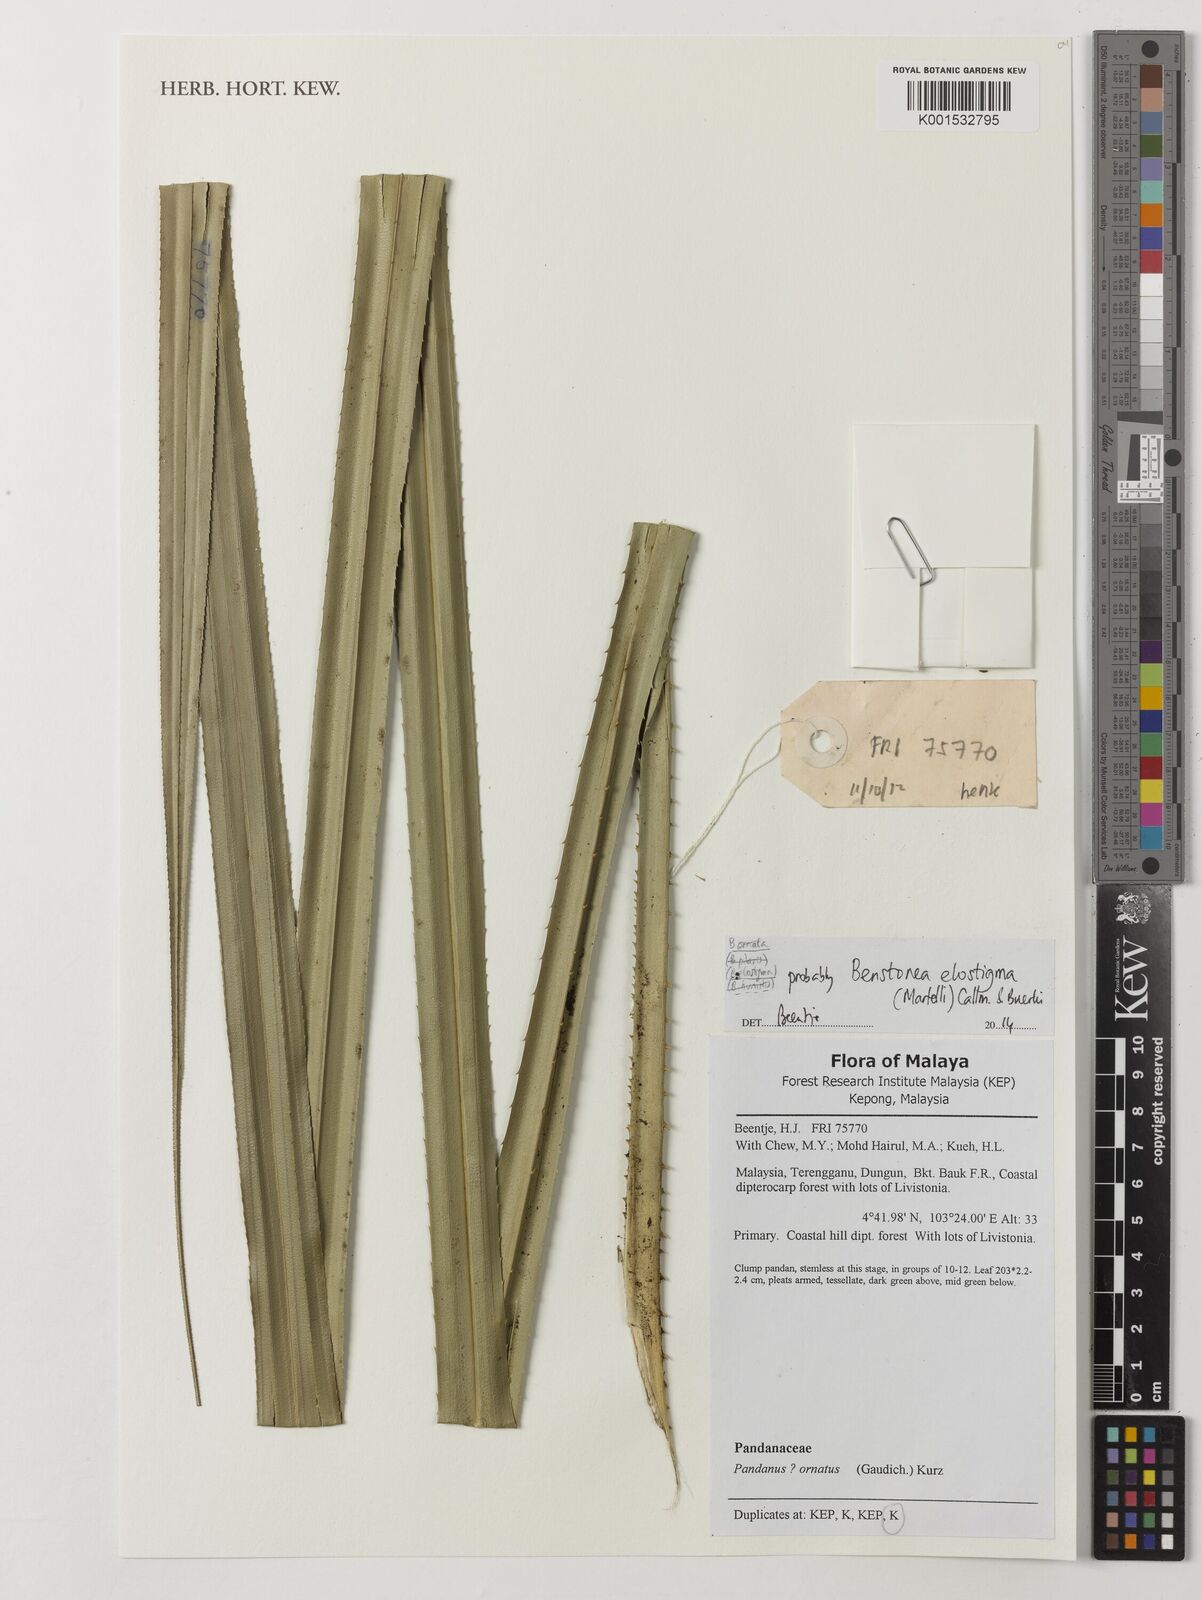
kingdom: Plantae
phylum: Tracheophyta
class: Liliopsida
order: Pandanales
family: Pandanaceae
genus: Benstonea
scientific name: Benstonea elostigma
